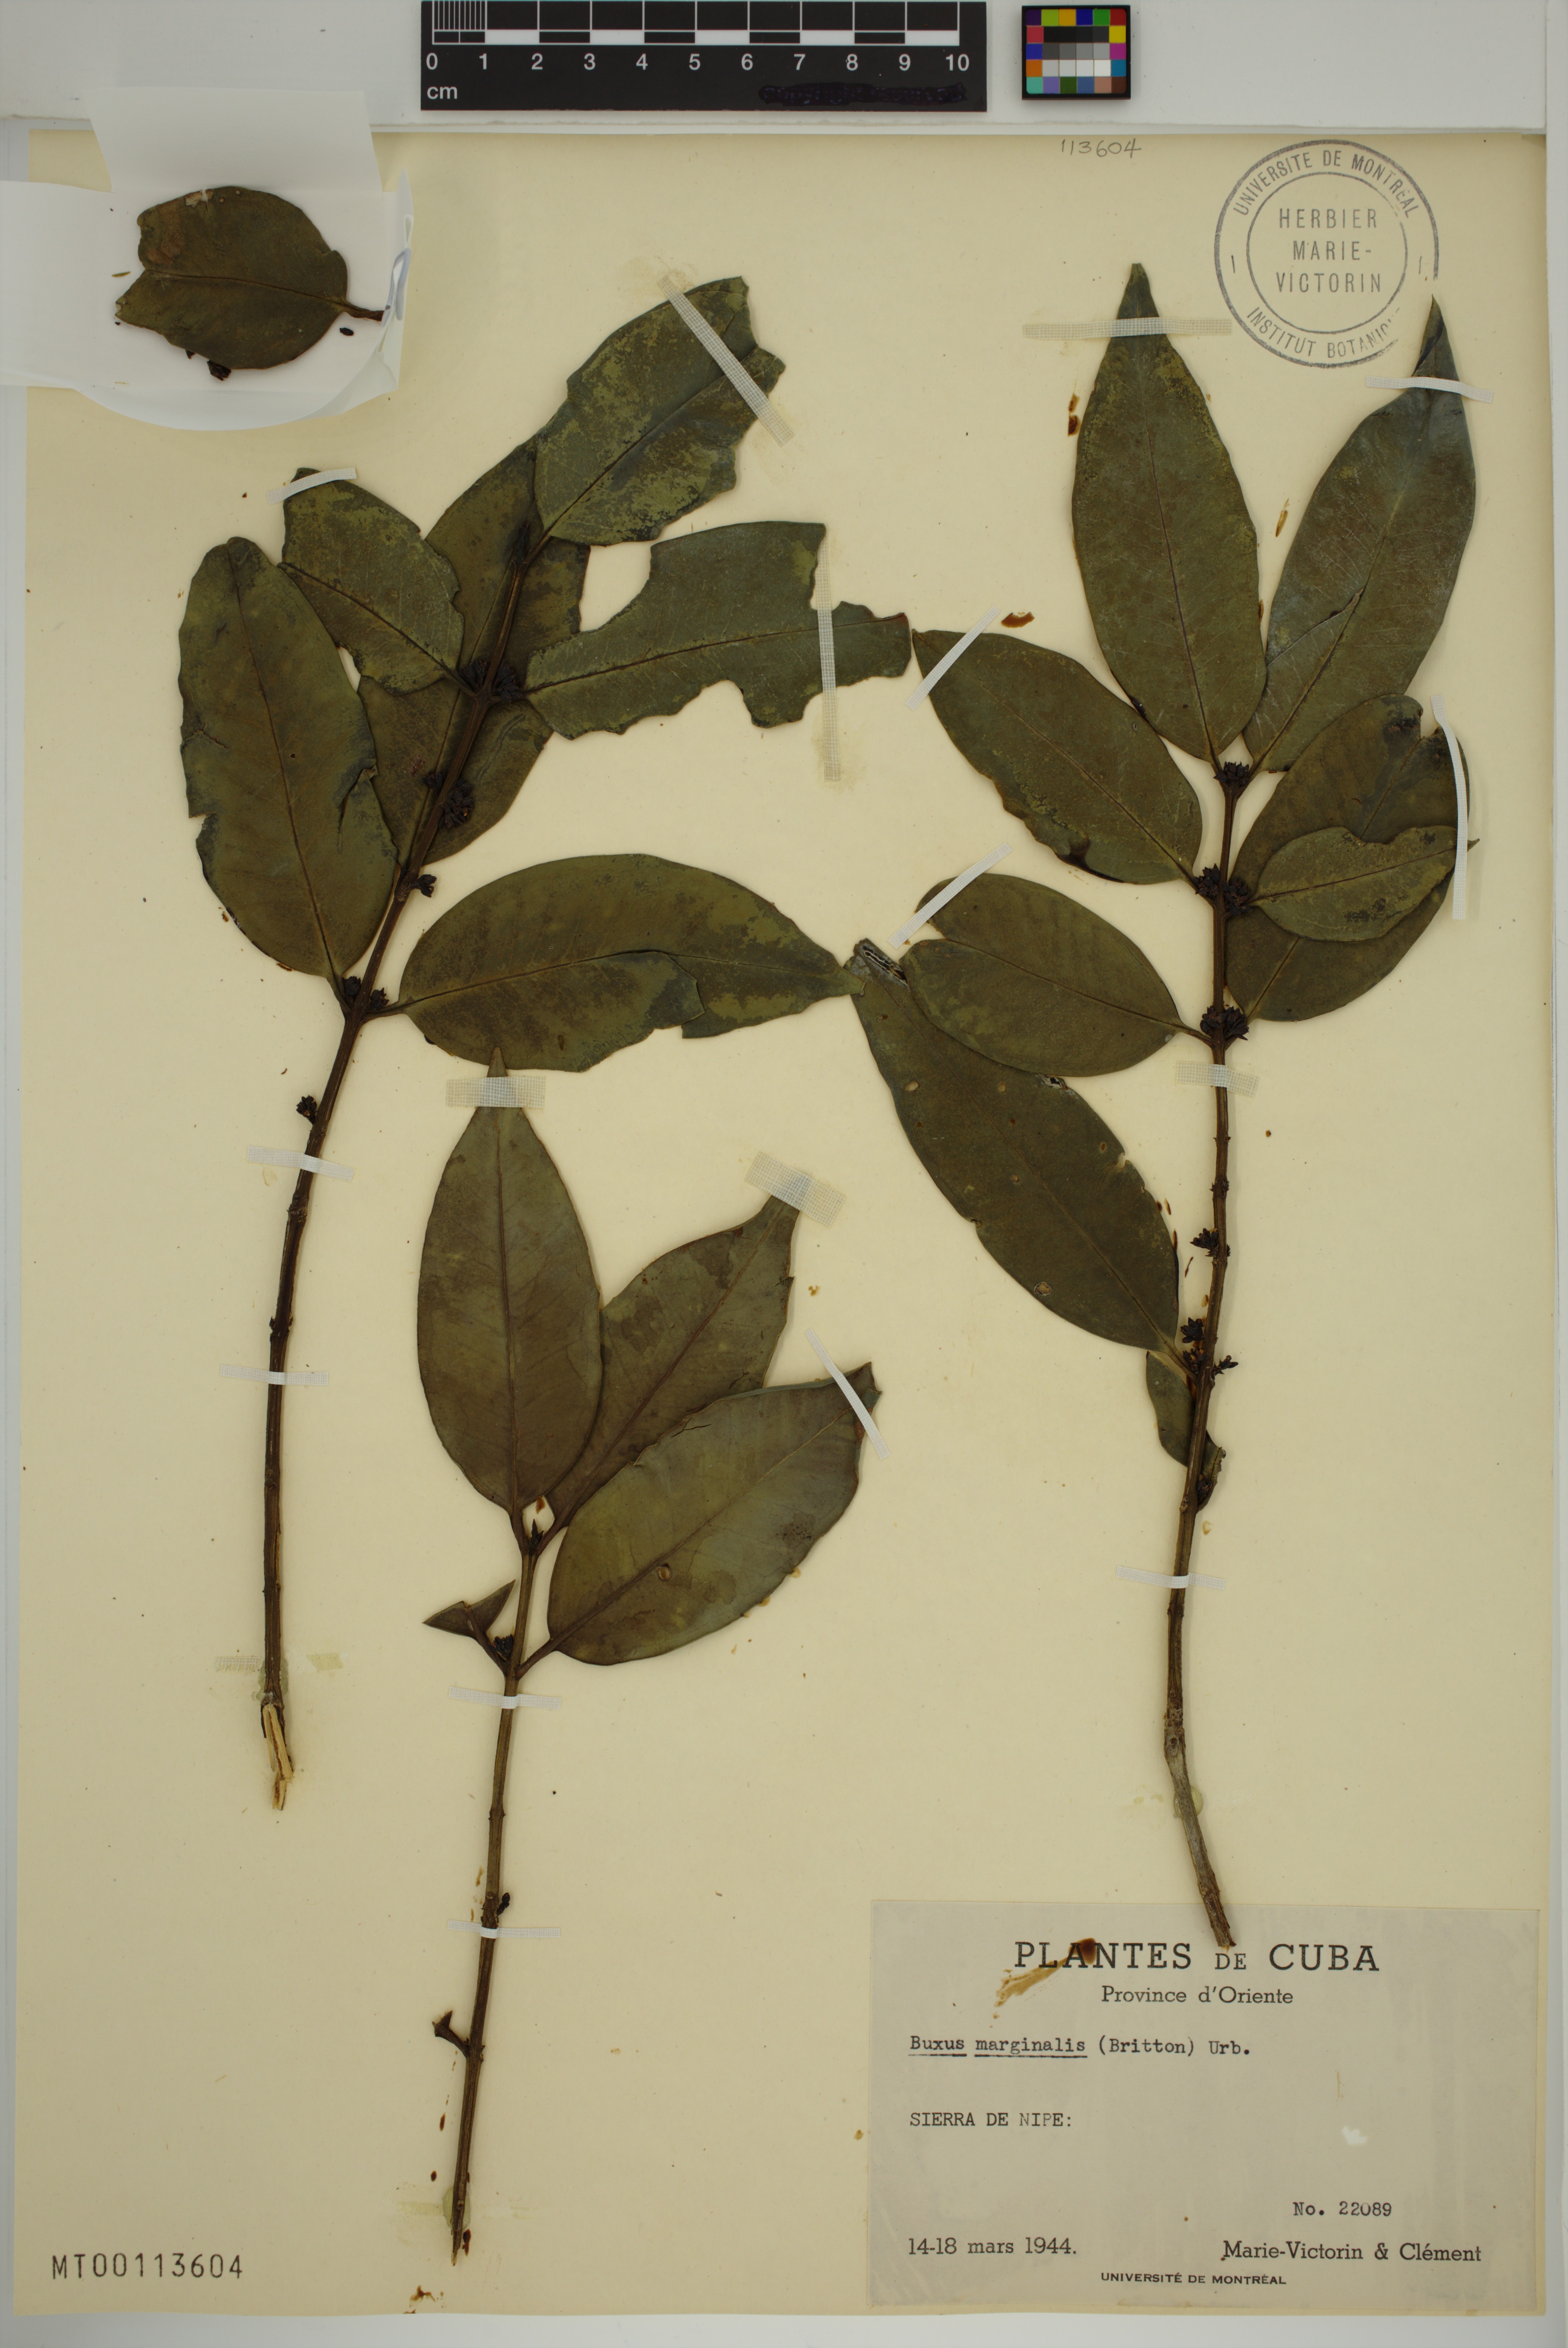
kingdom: Plantae
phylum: Tracheophyta
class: Magnoliopsida
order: Buxales
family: Buxaceae
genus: Buxus
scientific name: Buxus marginalis
